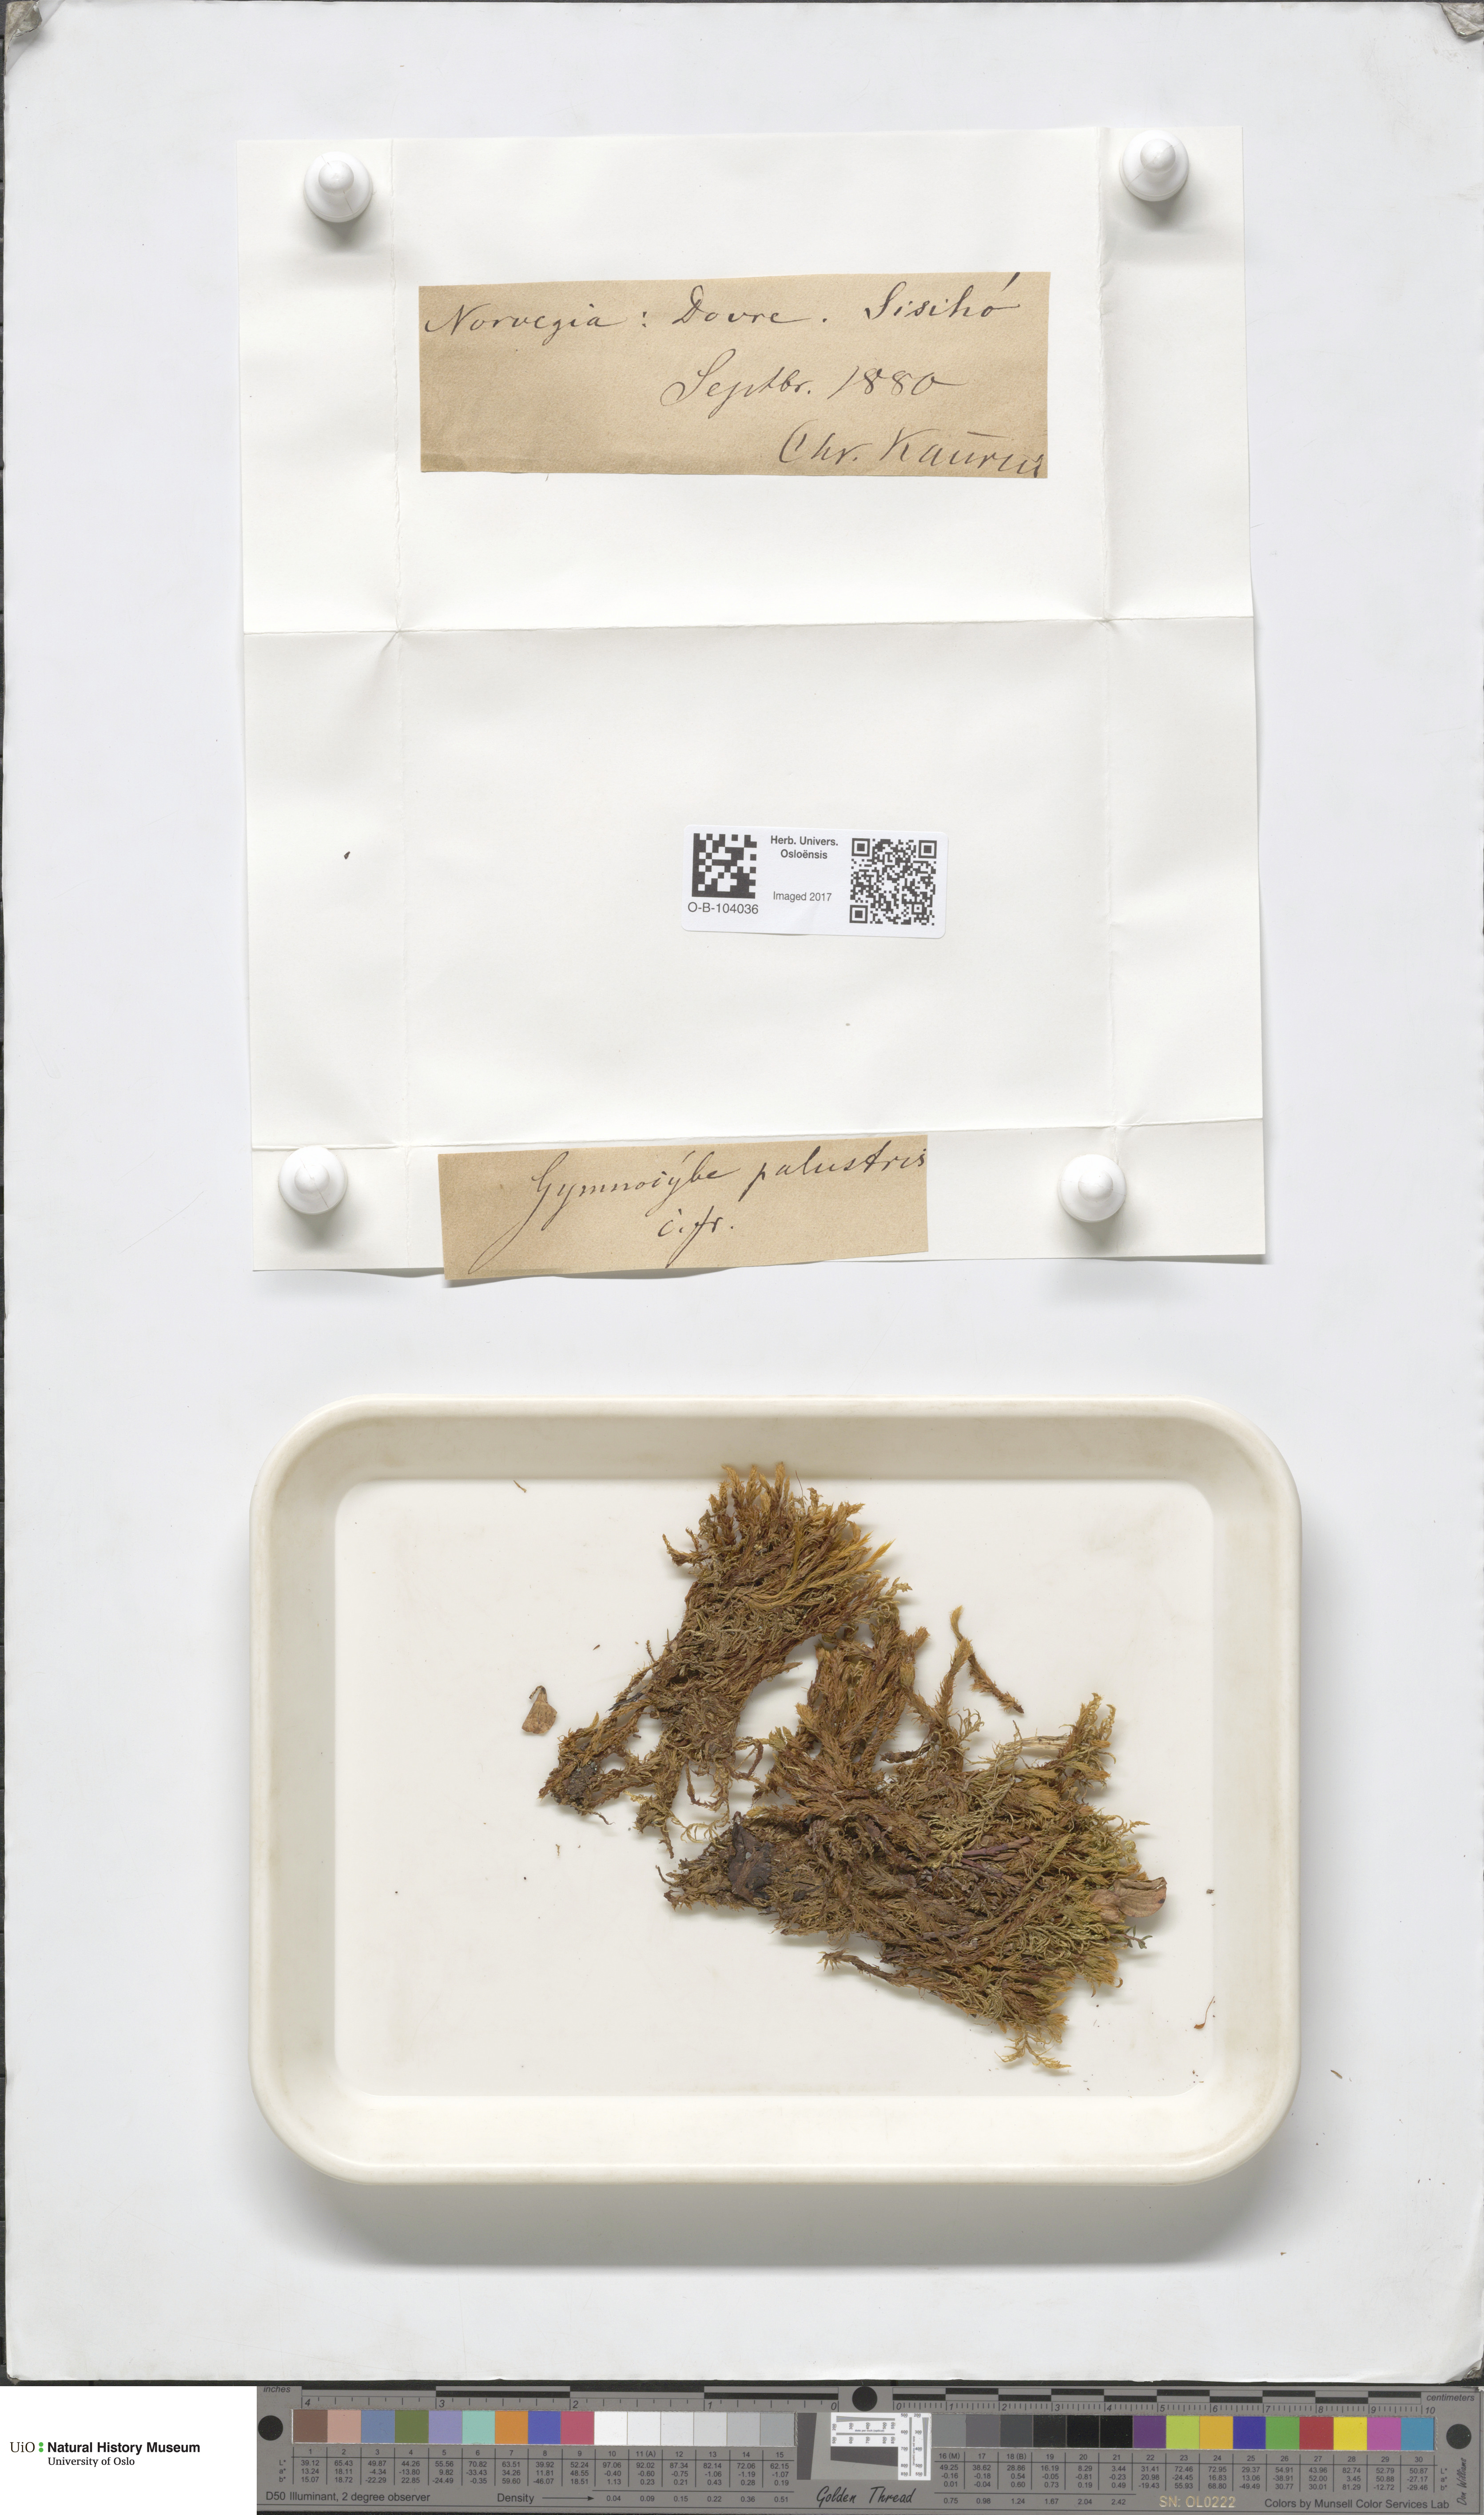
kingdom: Plantae
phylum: Bryophyta
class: Bryopsida
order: Aulacomniales
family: Aulacomniaceae
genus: Aulacomnium
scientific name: Aulacomnium palustre
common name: Bog groove-moss
